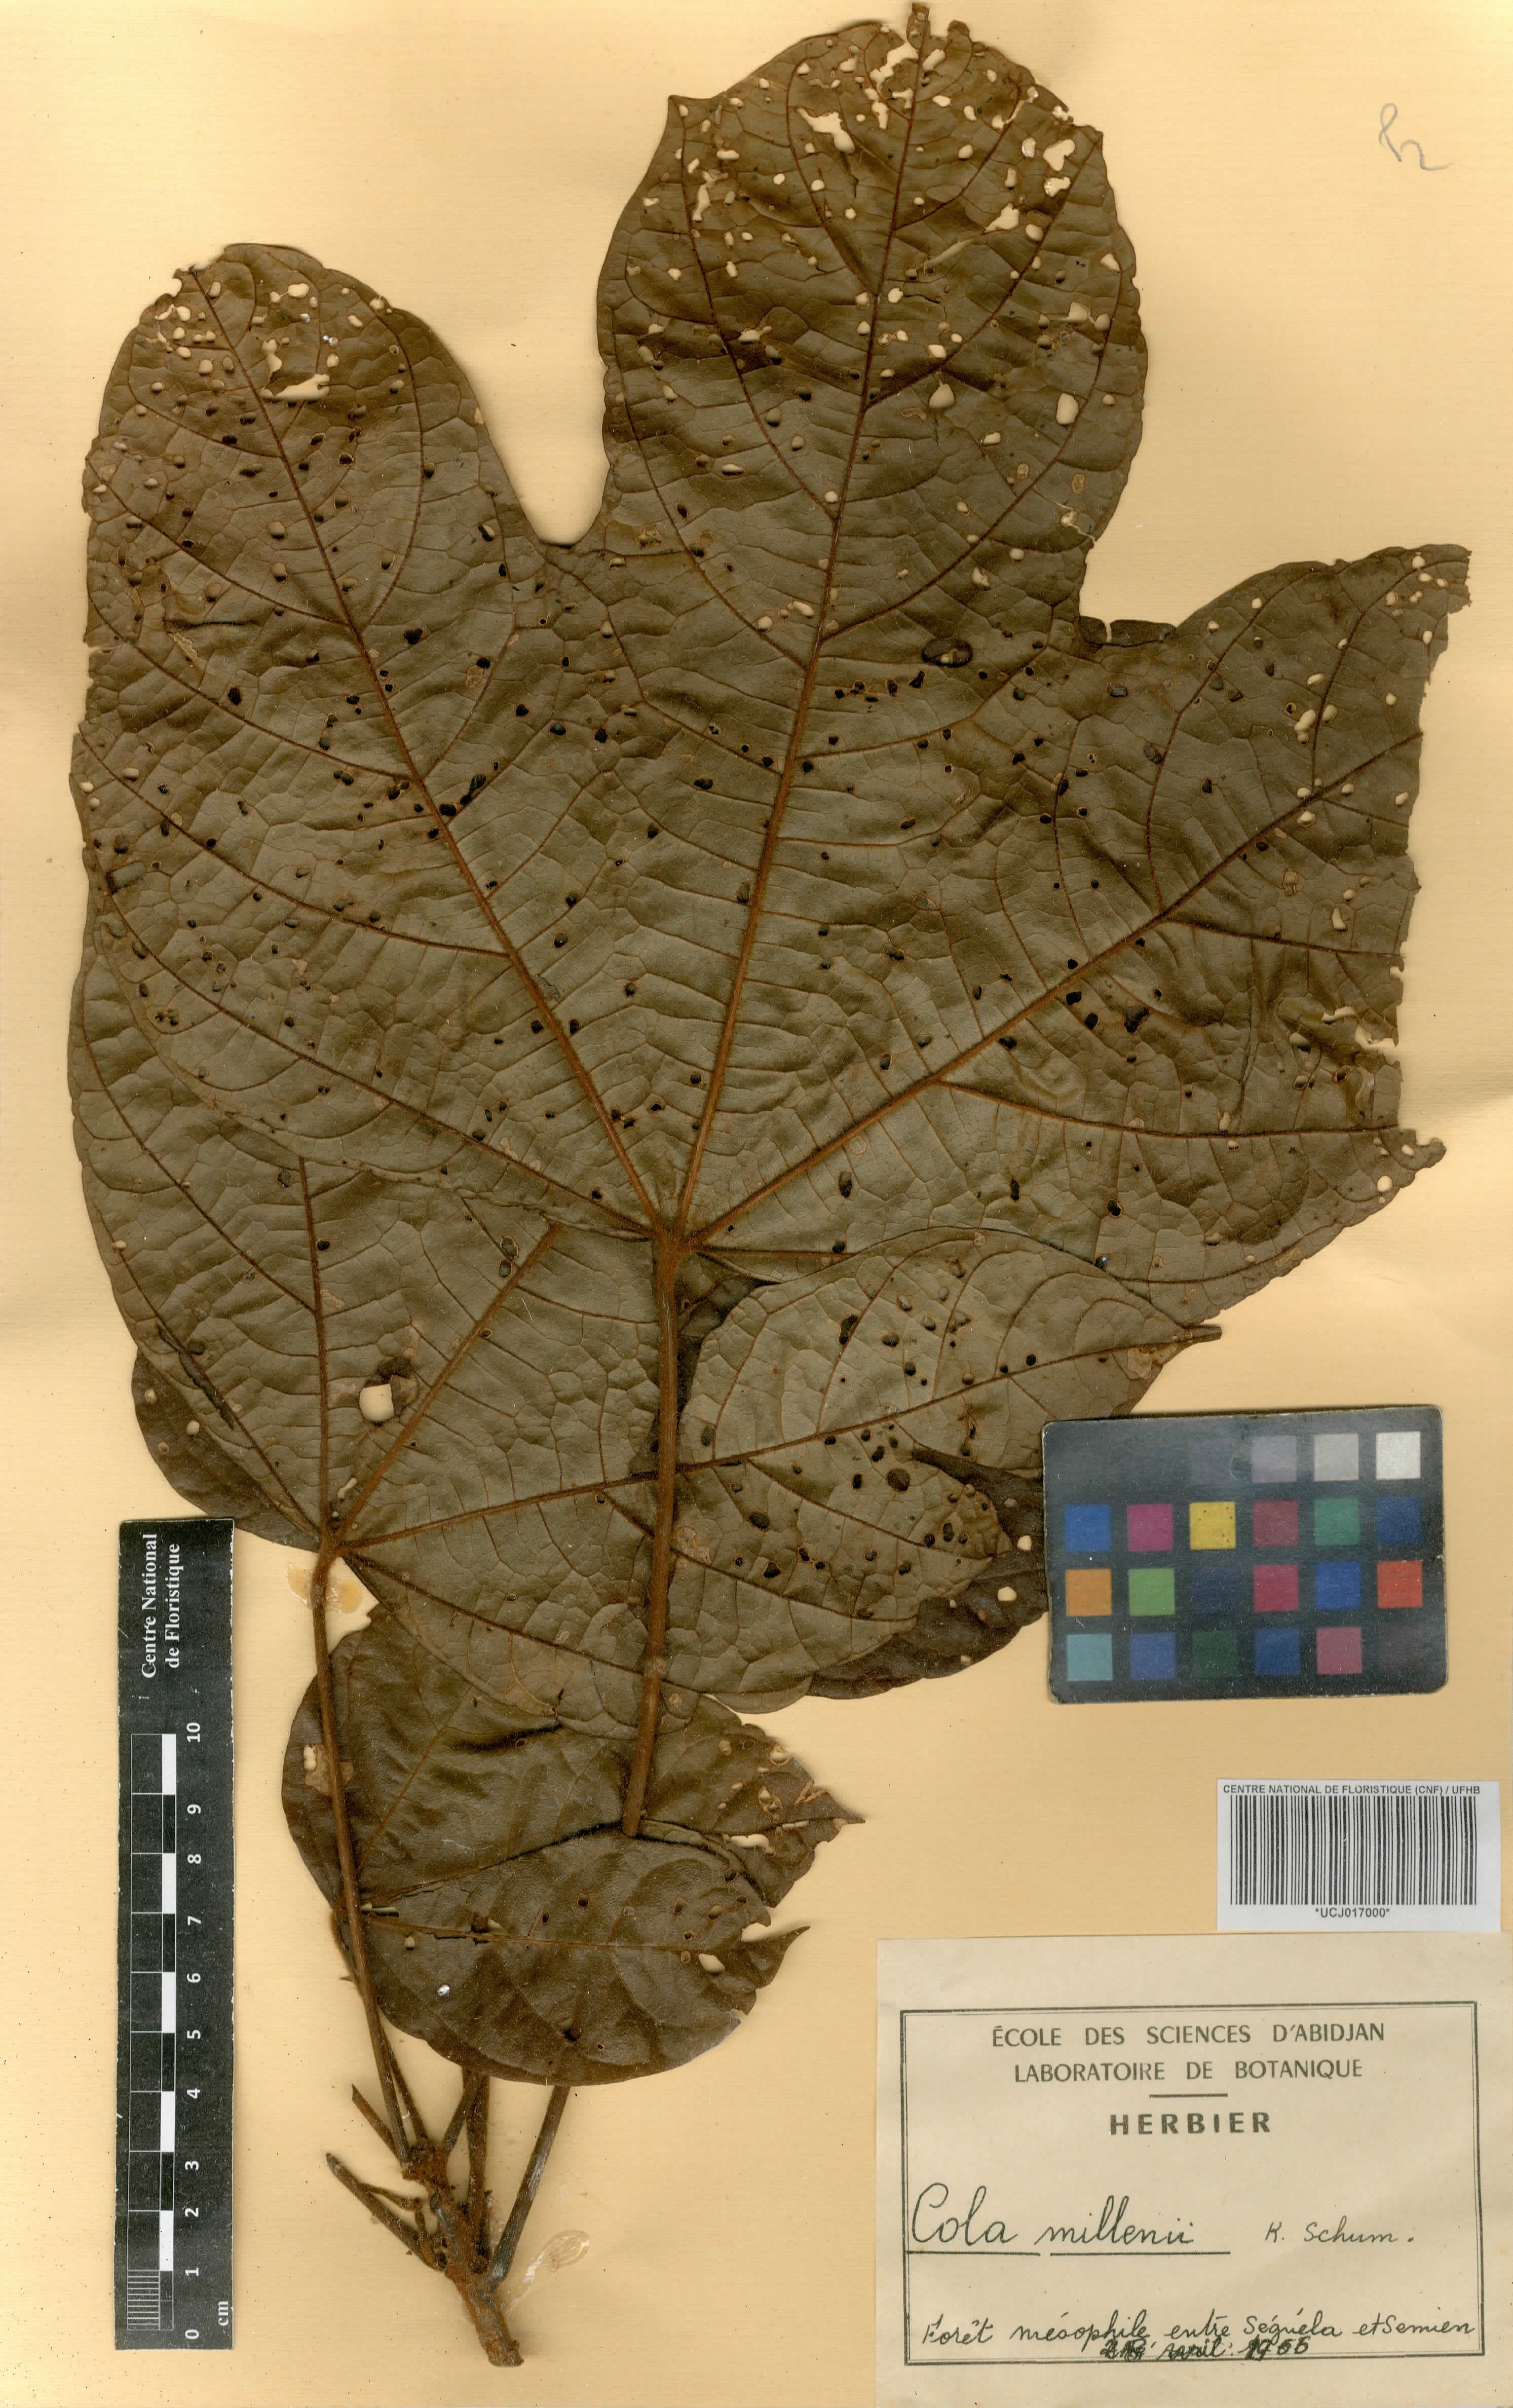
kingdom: Plantae
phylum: Tracheophyta
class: Magnoliopsida
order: Malvales
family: Malvaceae
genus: Cola
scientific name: Cola millenii
